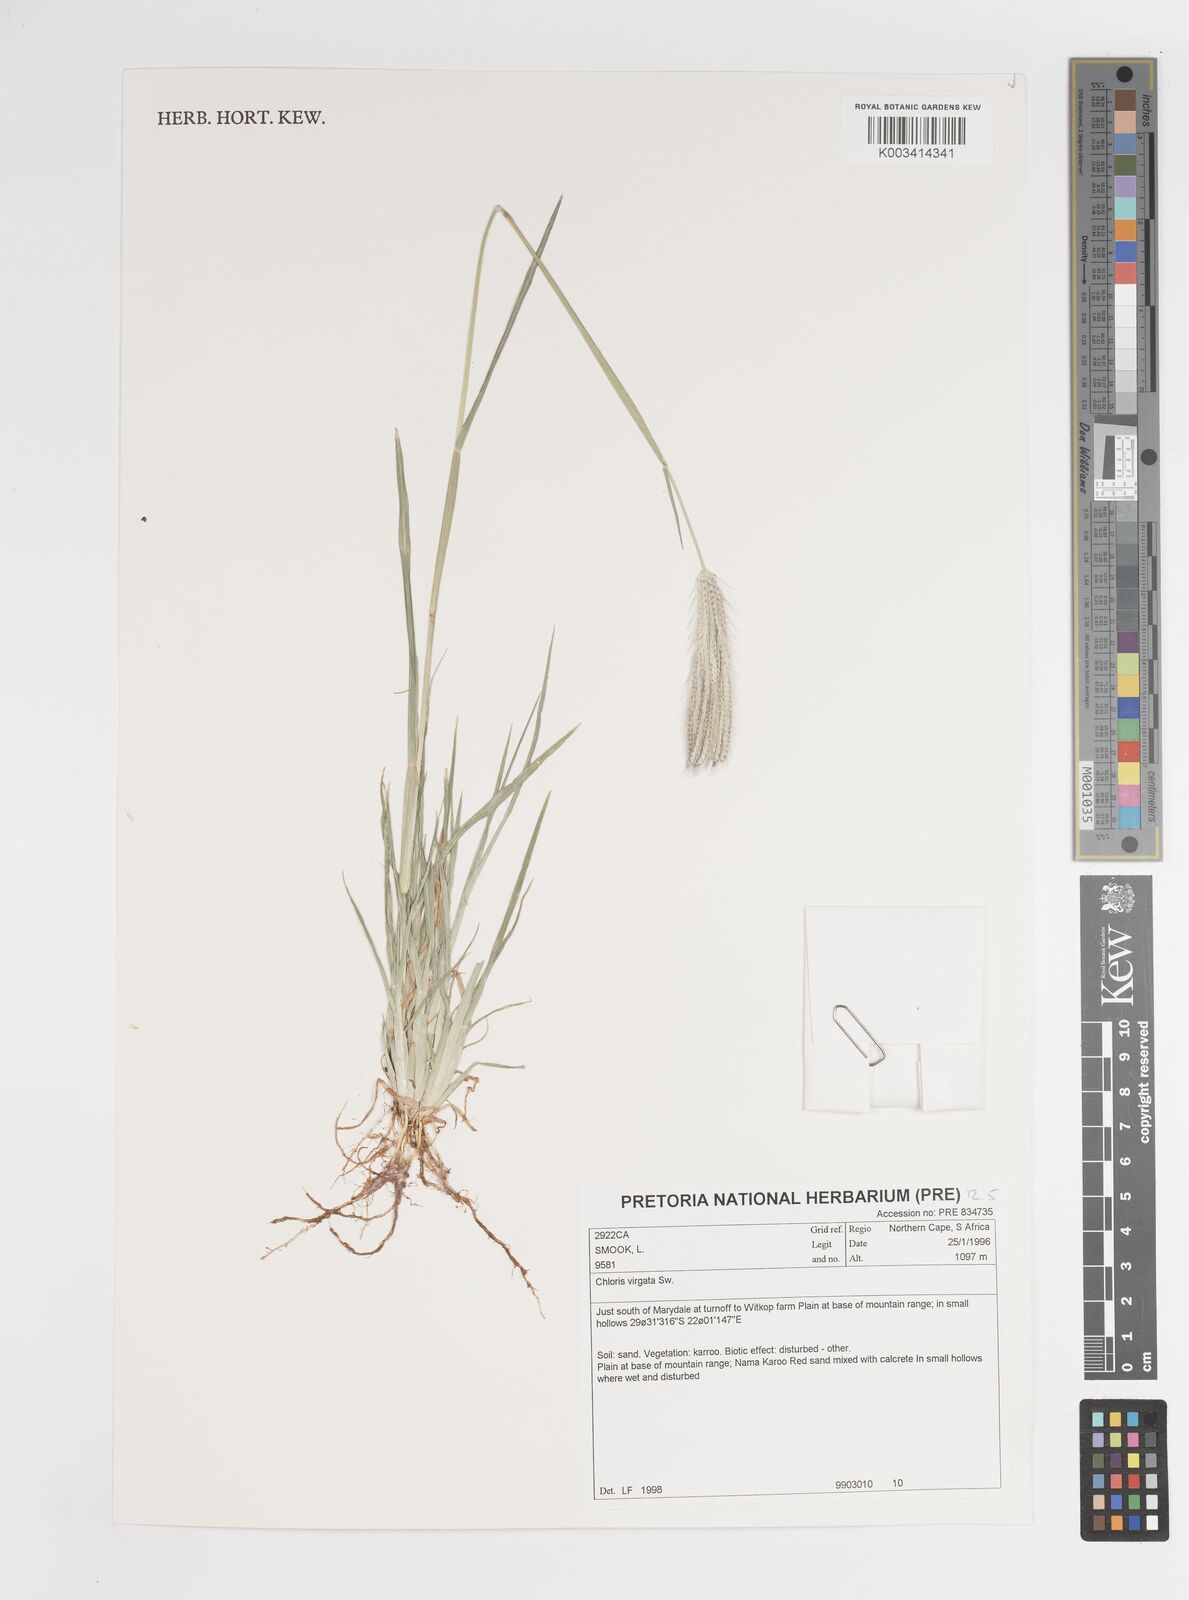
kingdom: Plantae
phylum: Tracheophyta
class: Liliopsida
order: Poales
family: Poaceae
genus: Chloris
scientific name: Chloris virgata
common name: Feathery rhodes-grass
